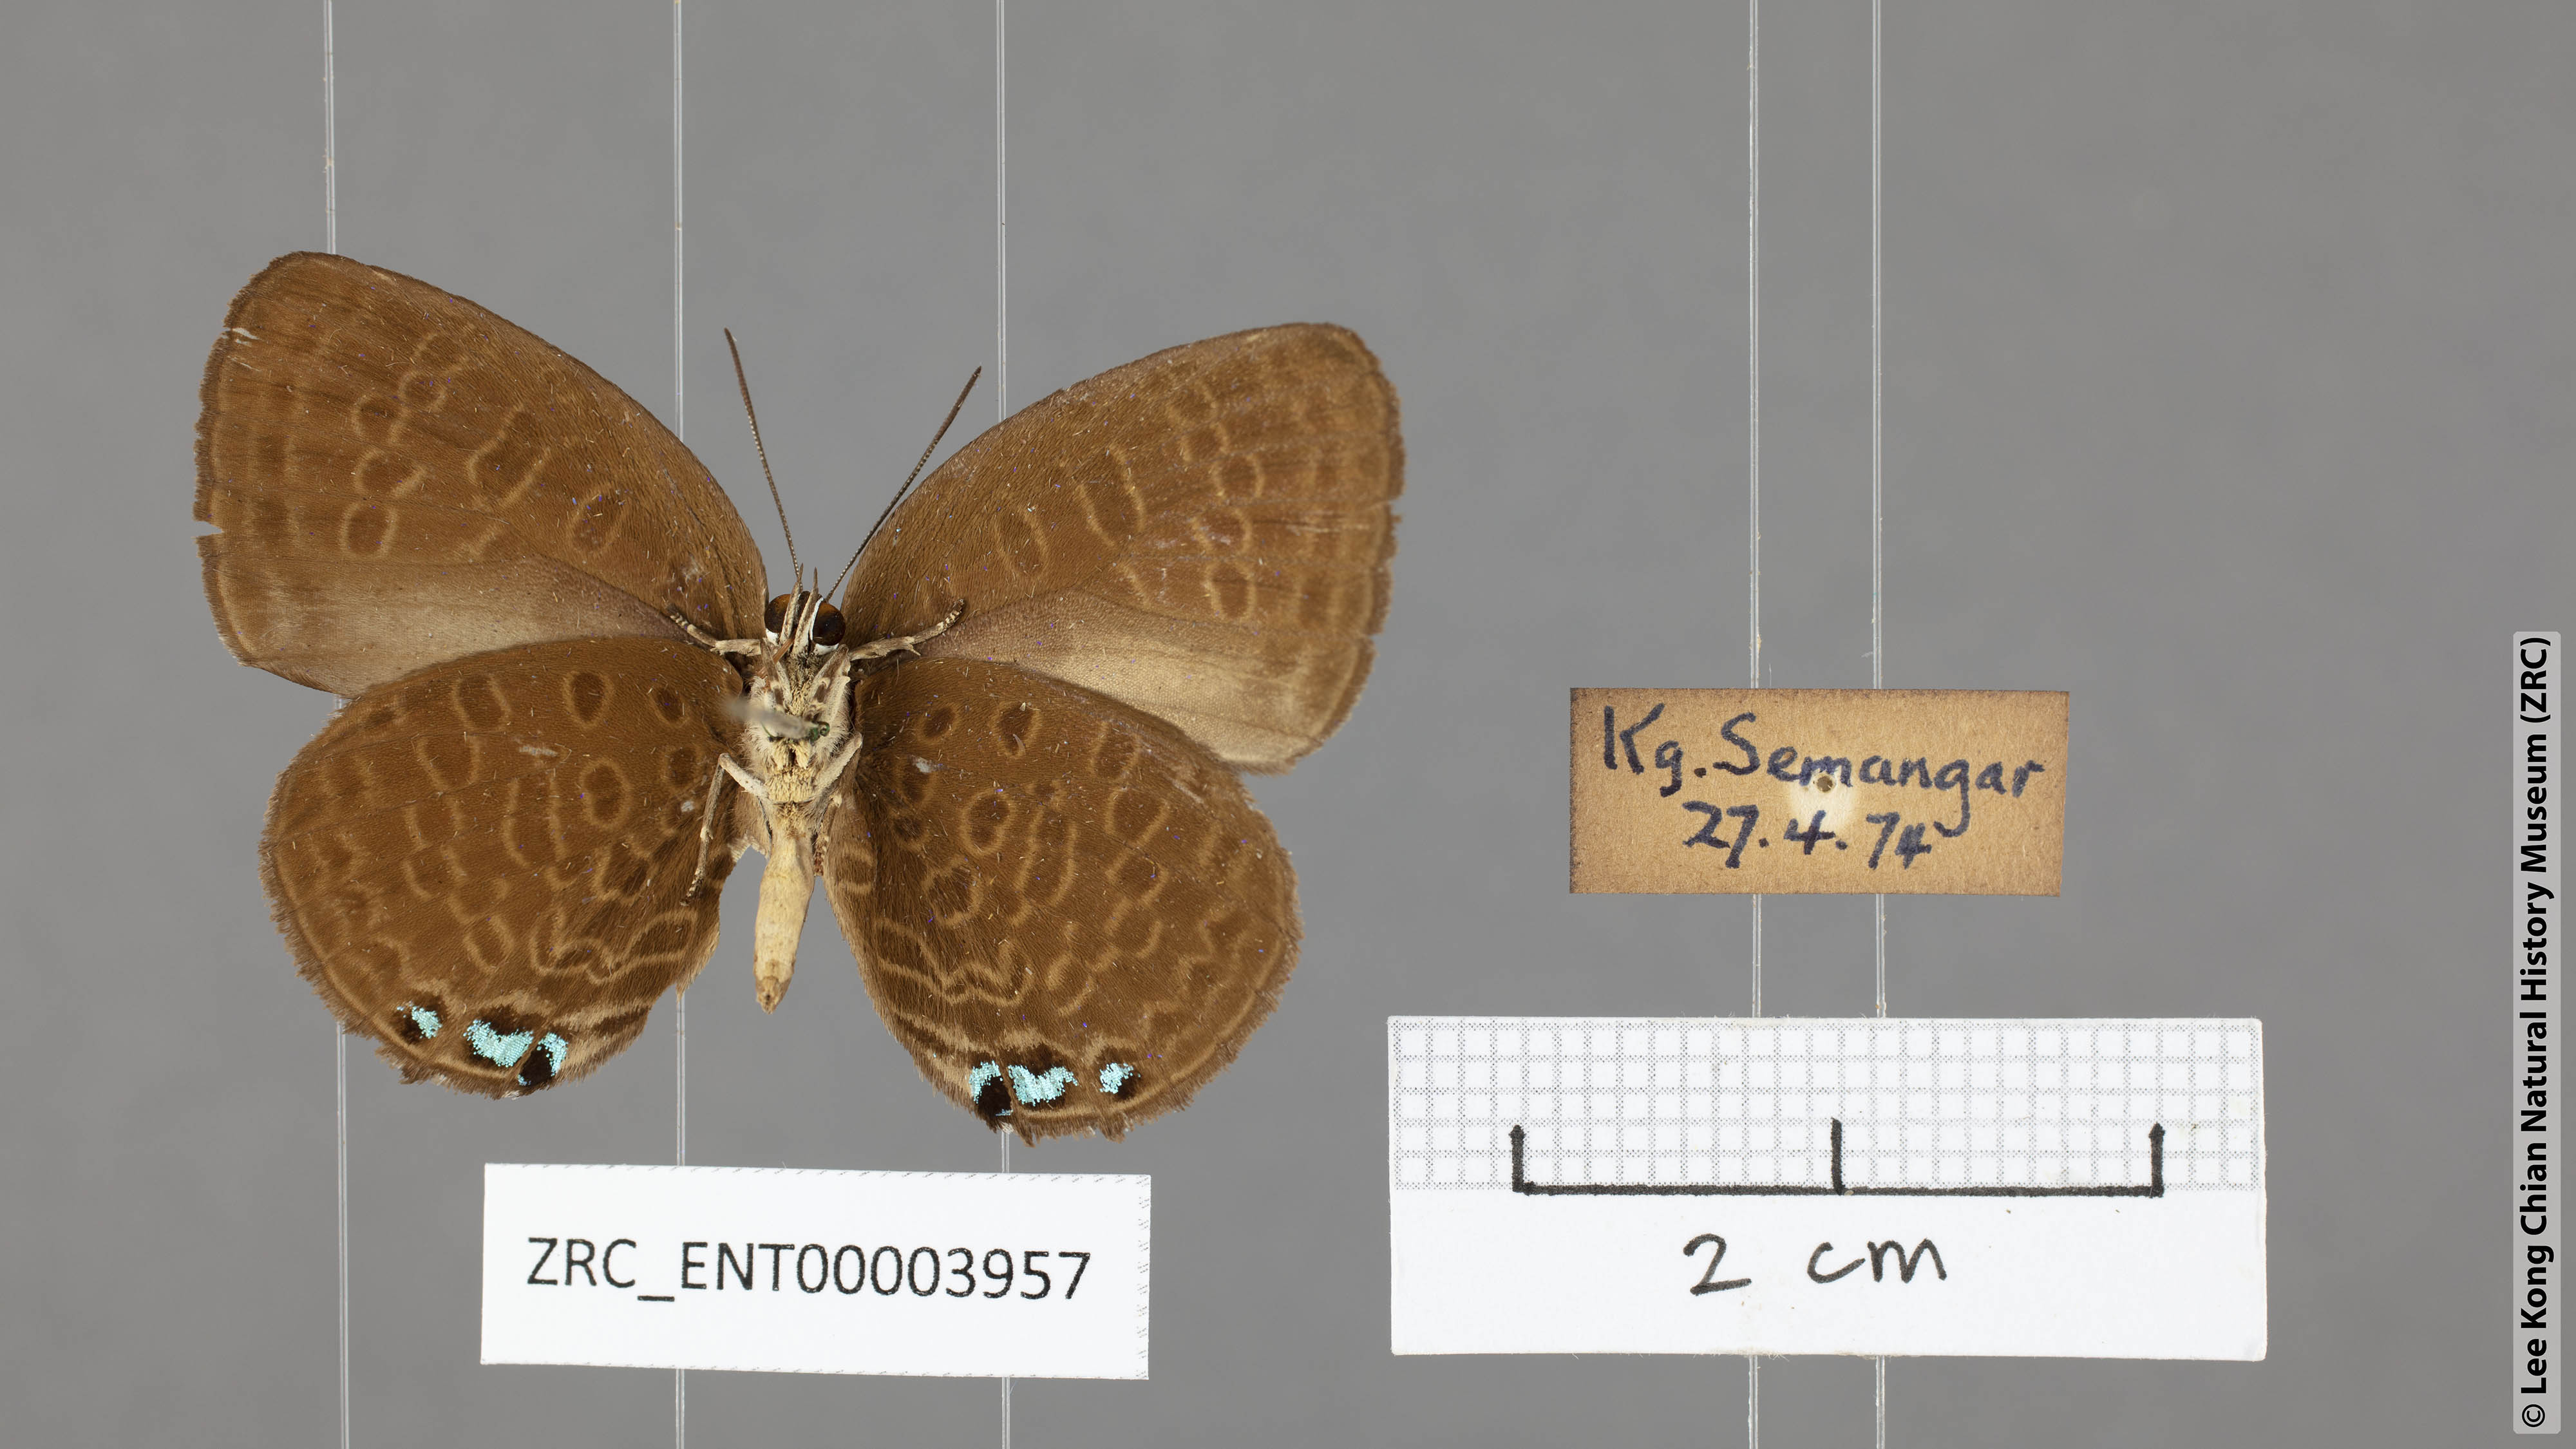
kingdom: Animalia
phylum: Arthropoda
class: Insecta
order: Lepidoptera
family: Lycaenidae
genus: Arhopala
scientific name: Arhopala hypomuta
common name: Violet oakblue
